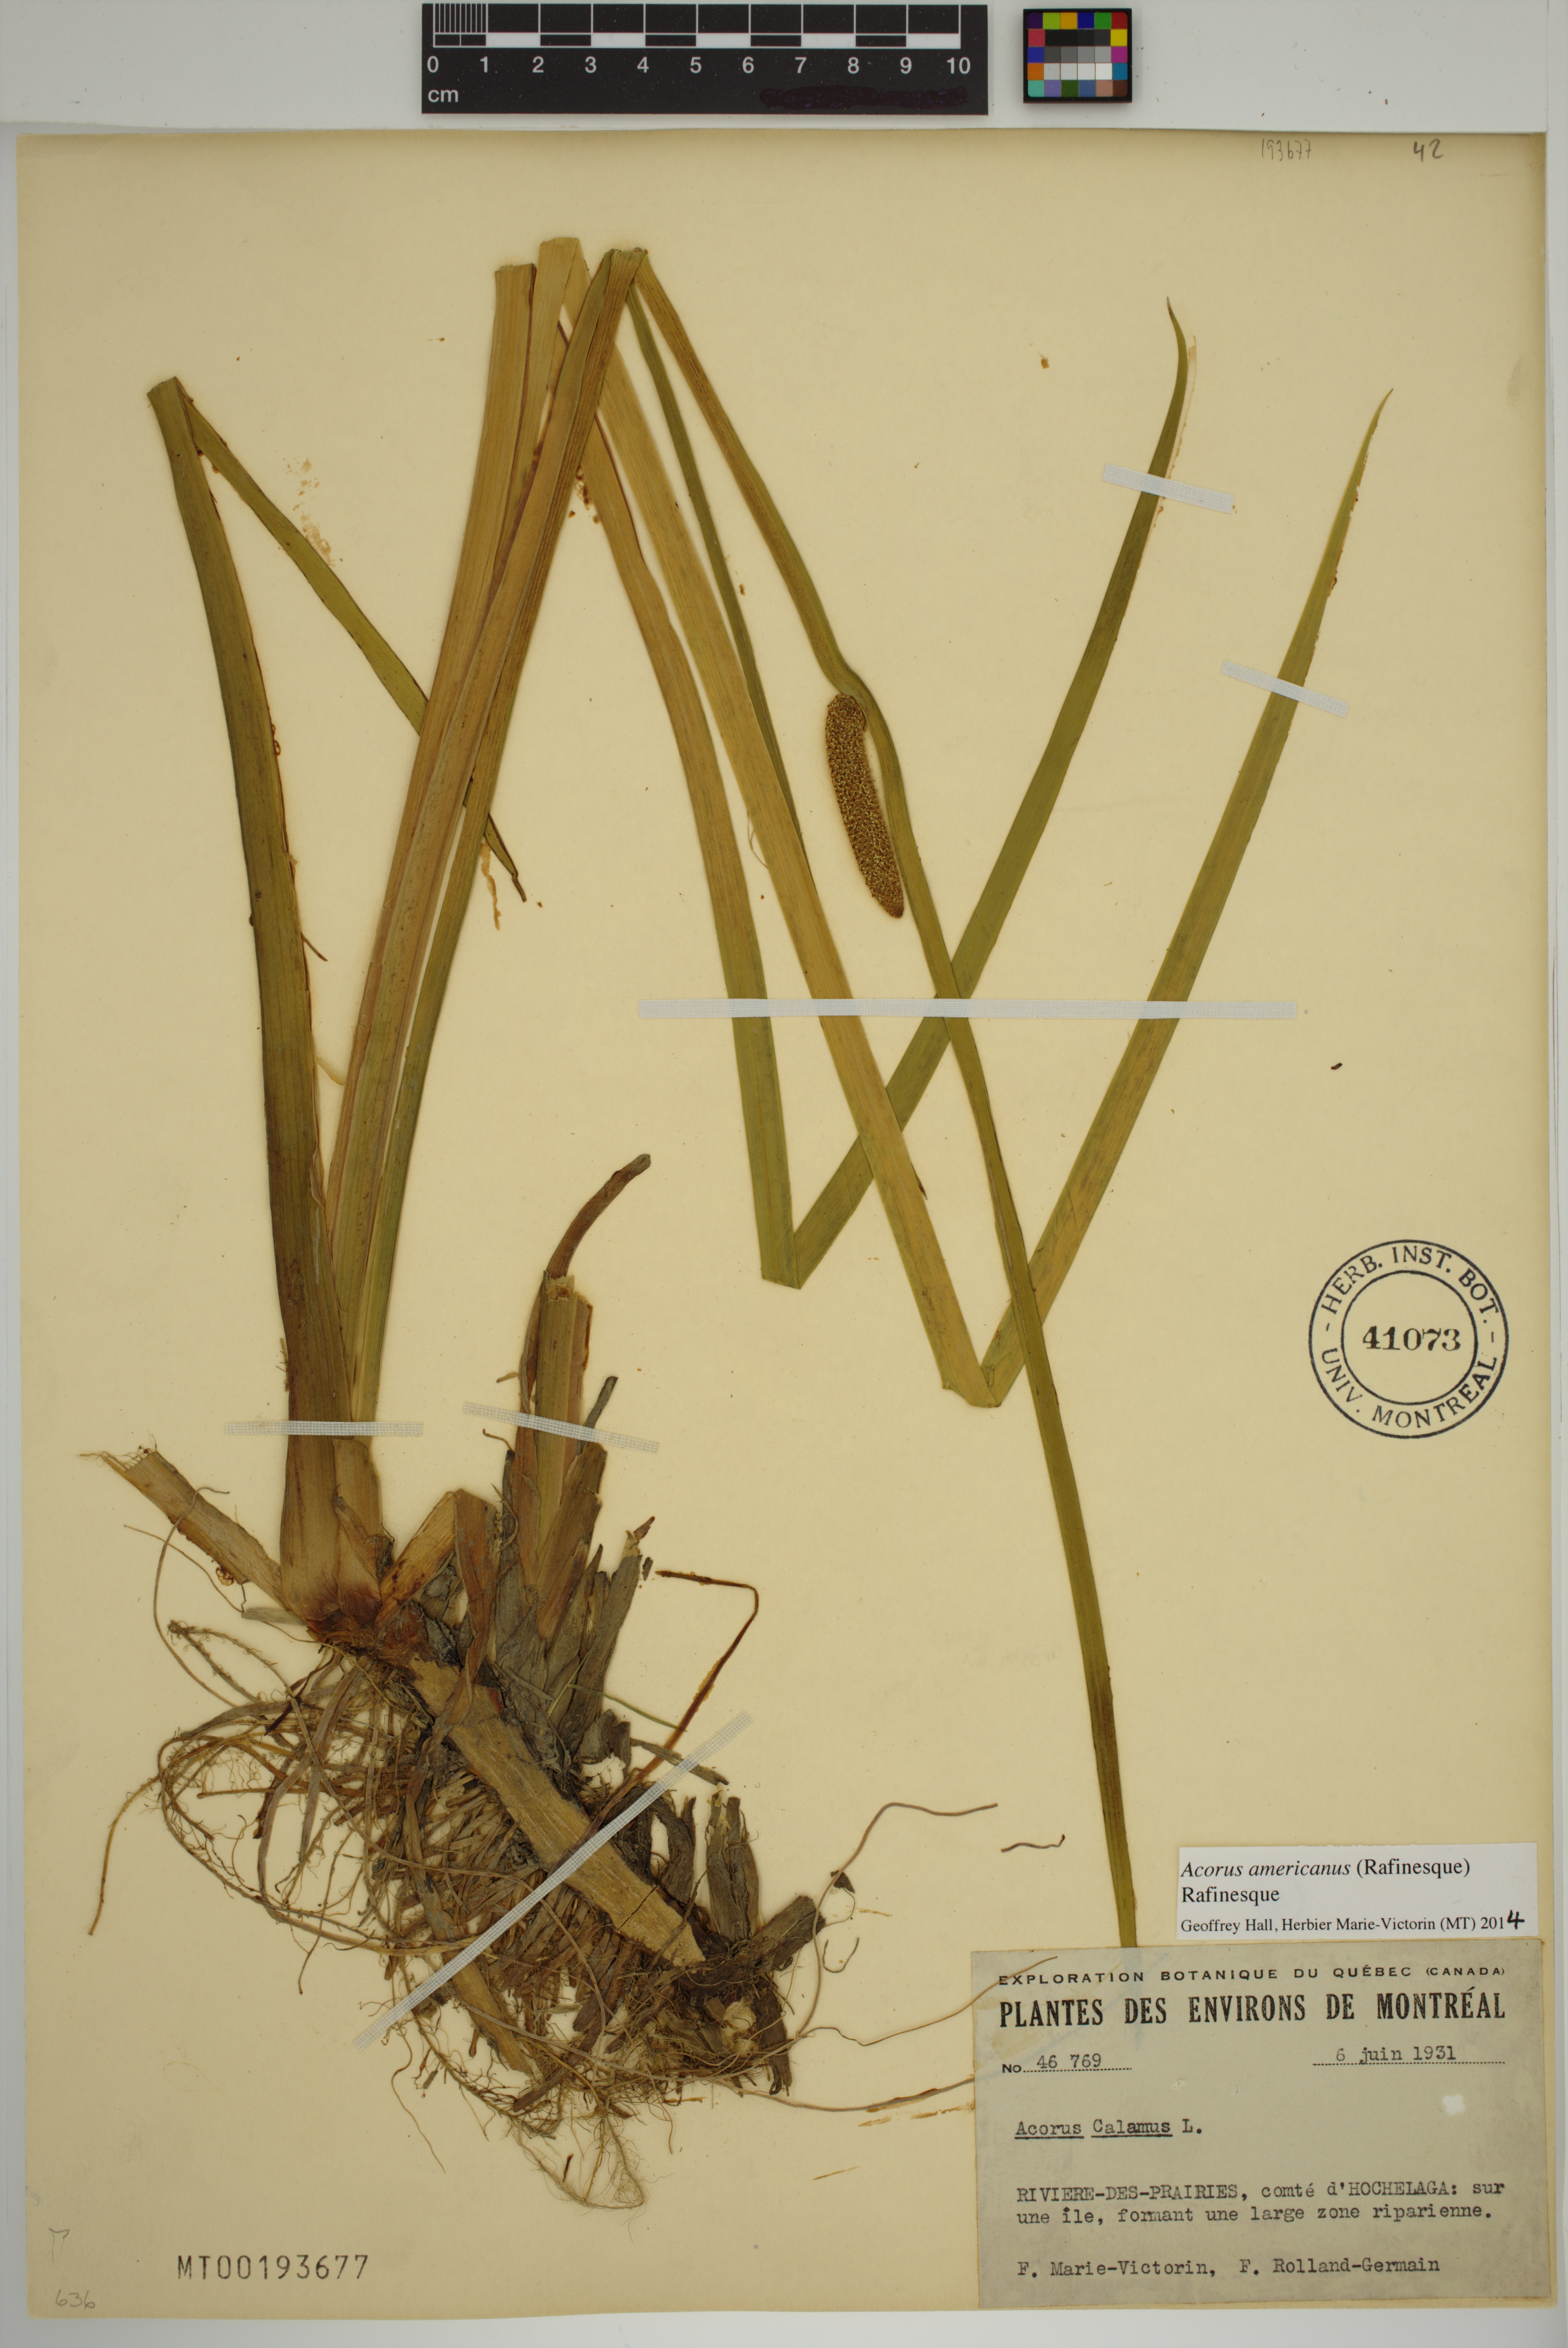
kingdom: Plantae
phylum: Tracheophyta
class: Liliopsida
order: Acorales
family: Acoraceae
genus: Acorus
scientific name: Acorus calamus
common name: Sweet-flag
